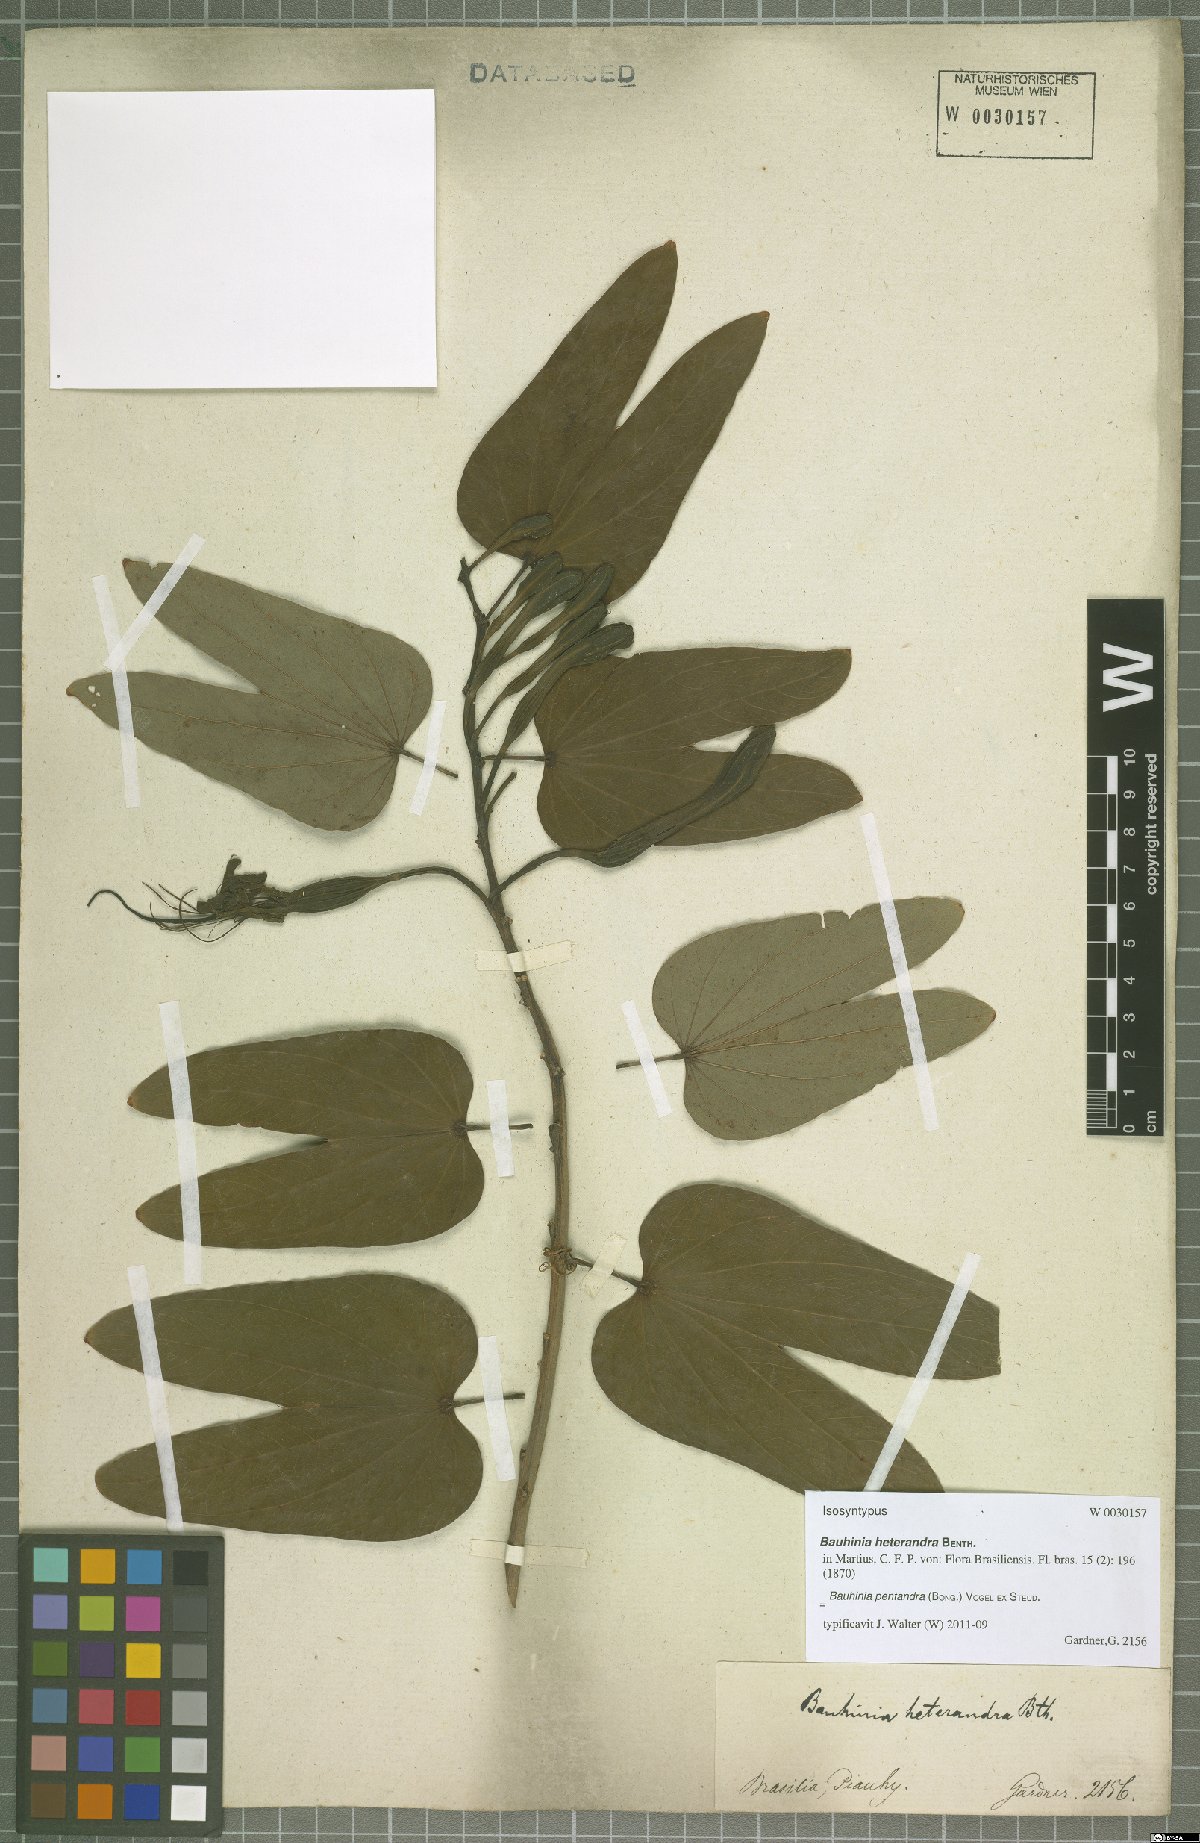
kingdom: Plantae
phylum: Tracheophyta
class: Magnoliopsida
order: Fabales
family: Fabaceae
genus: Bauhinia
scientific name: Bauhinia pentandra
